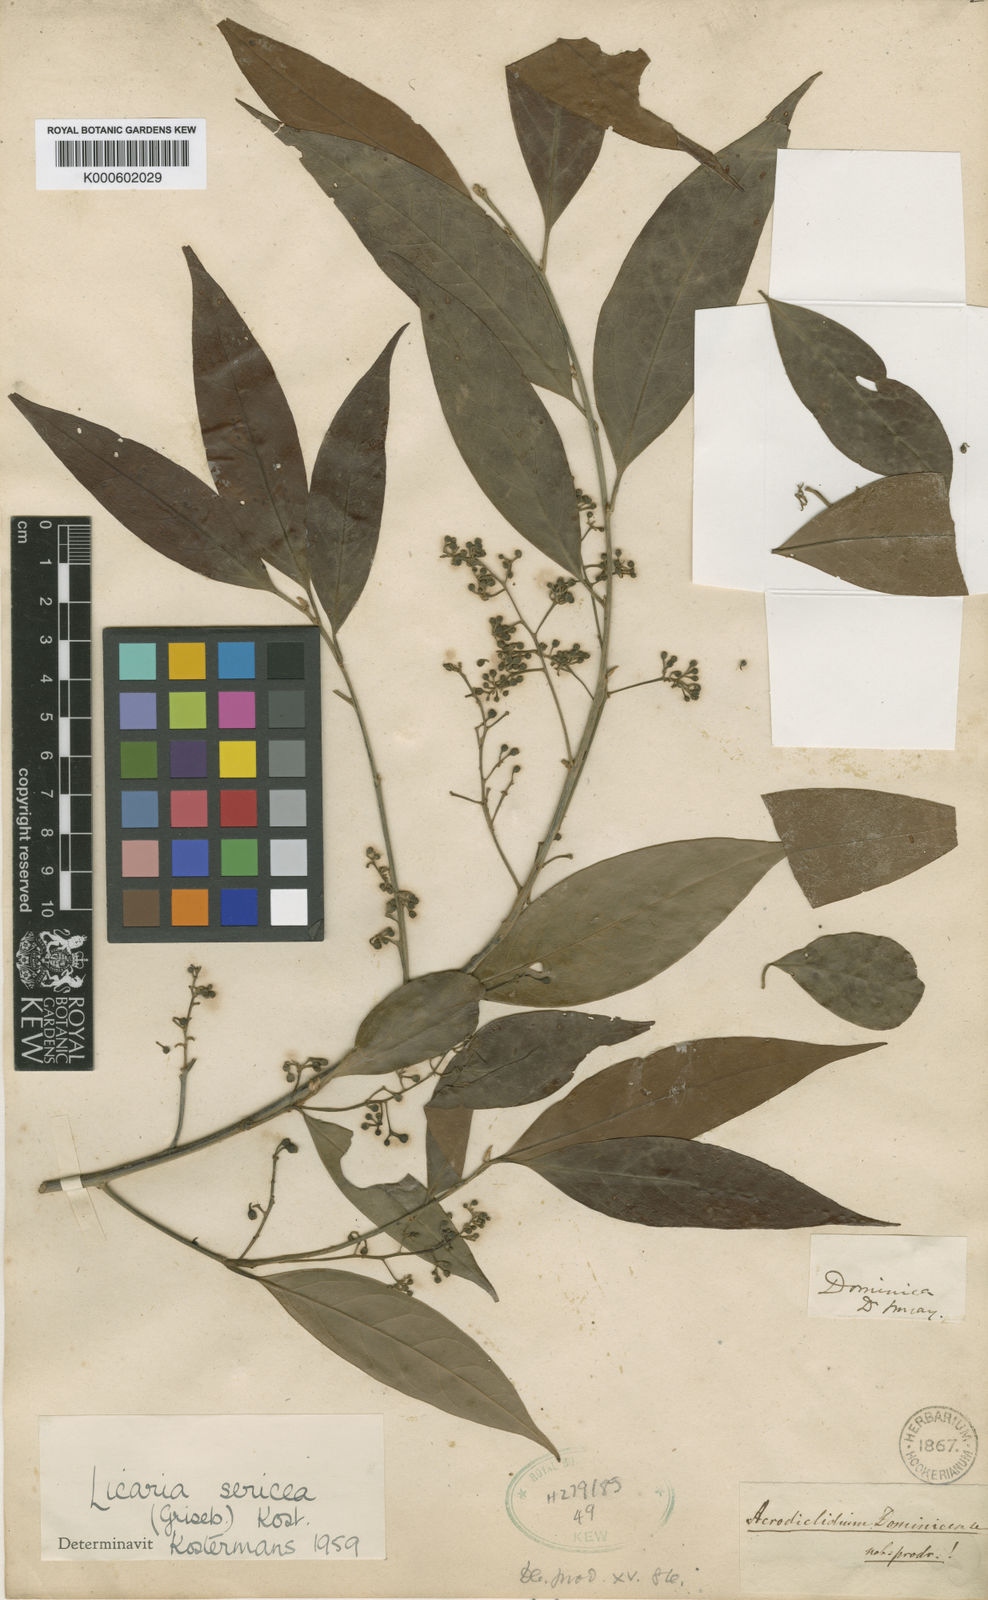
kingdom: Plantae
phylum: Tracheophyta
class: Magnoliopsida
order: Laurales
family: Lauraceae
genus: Licaria
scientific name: Licaria sericea
